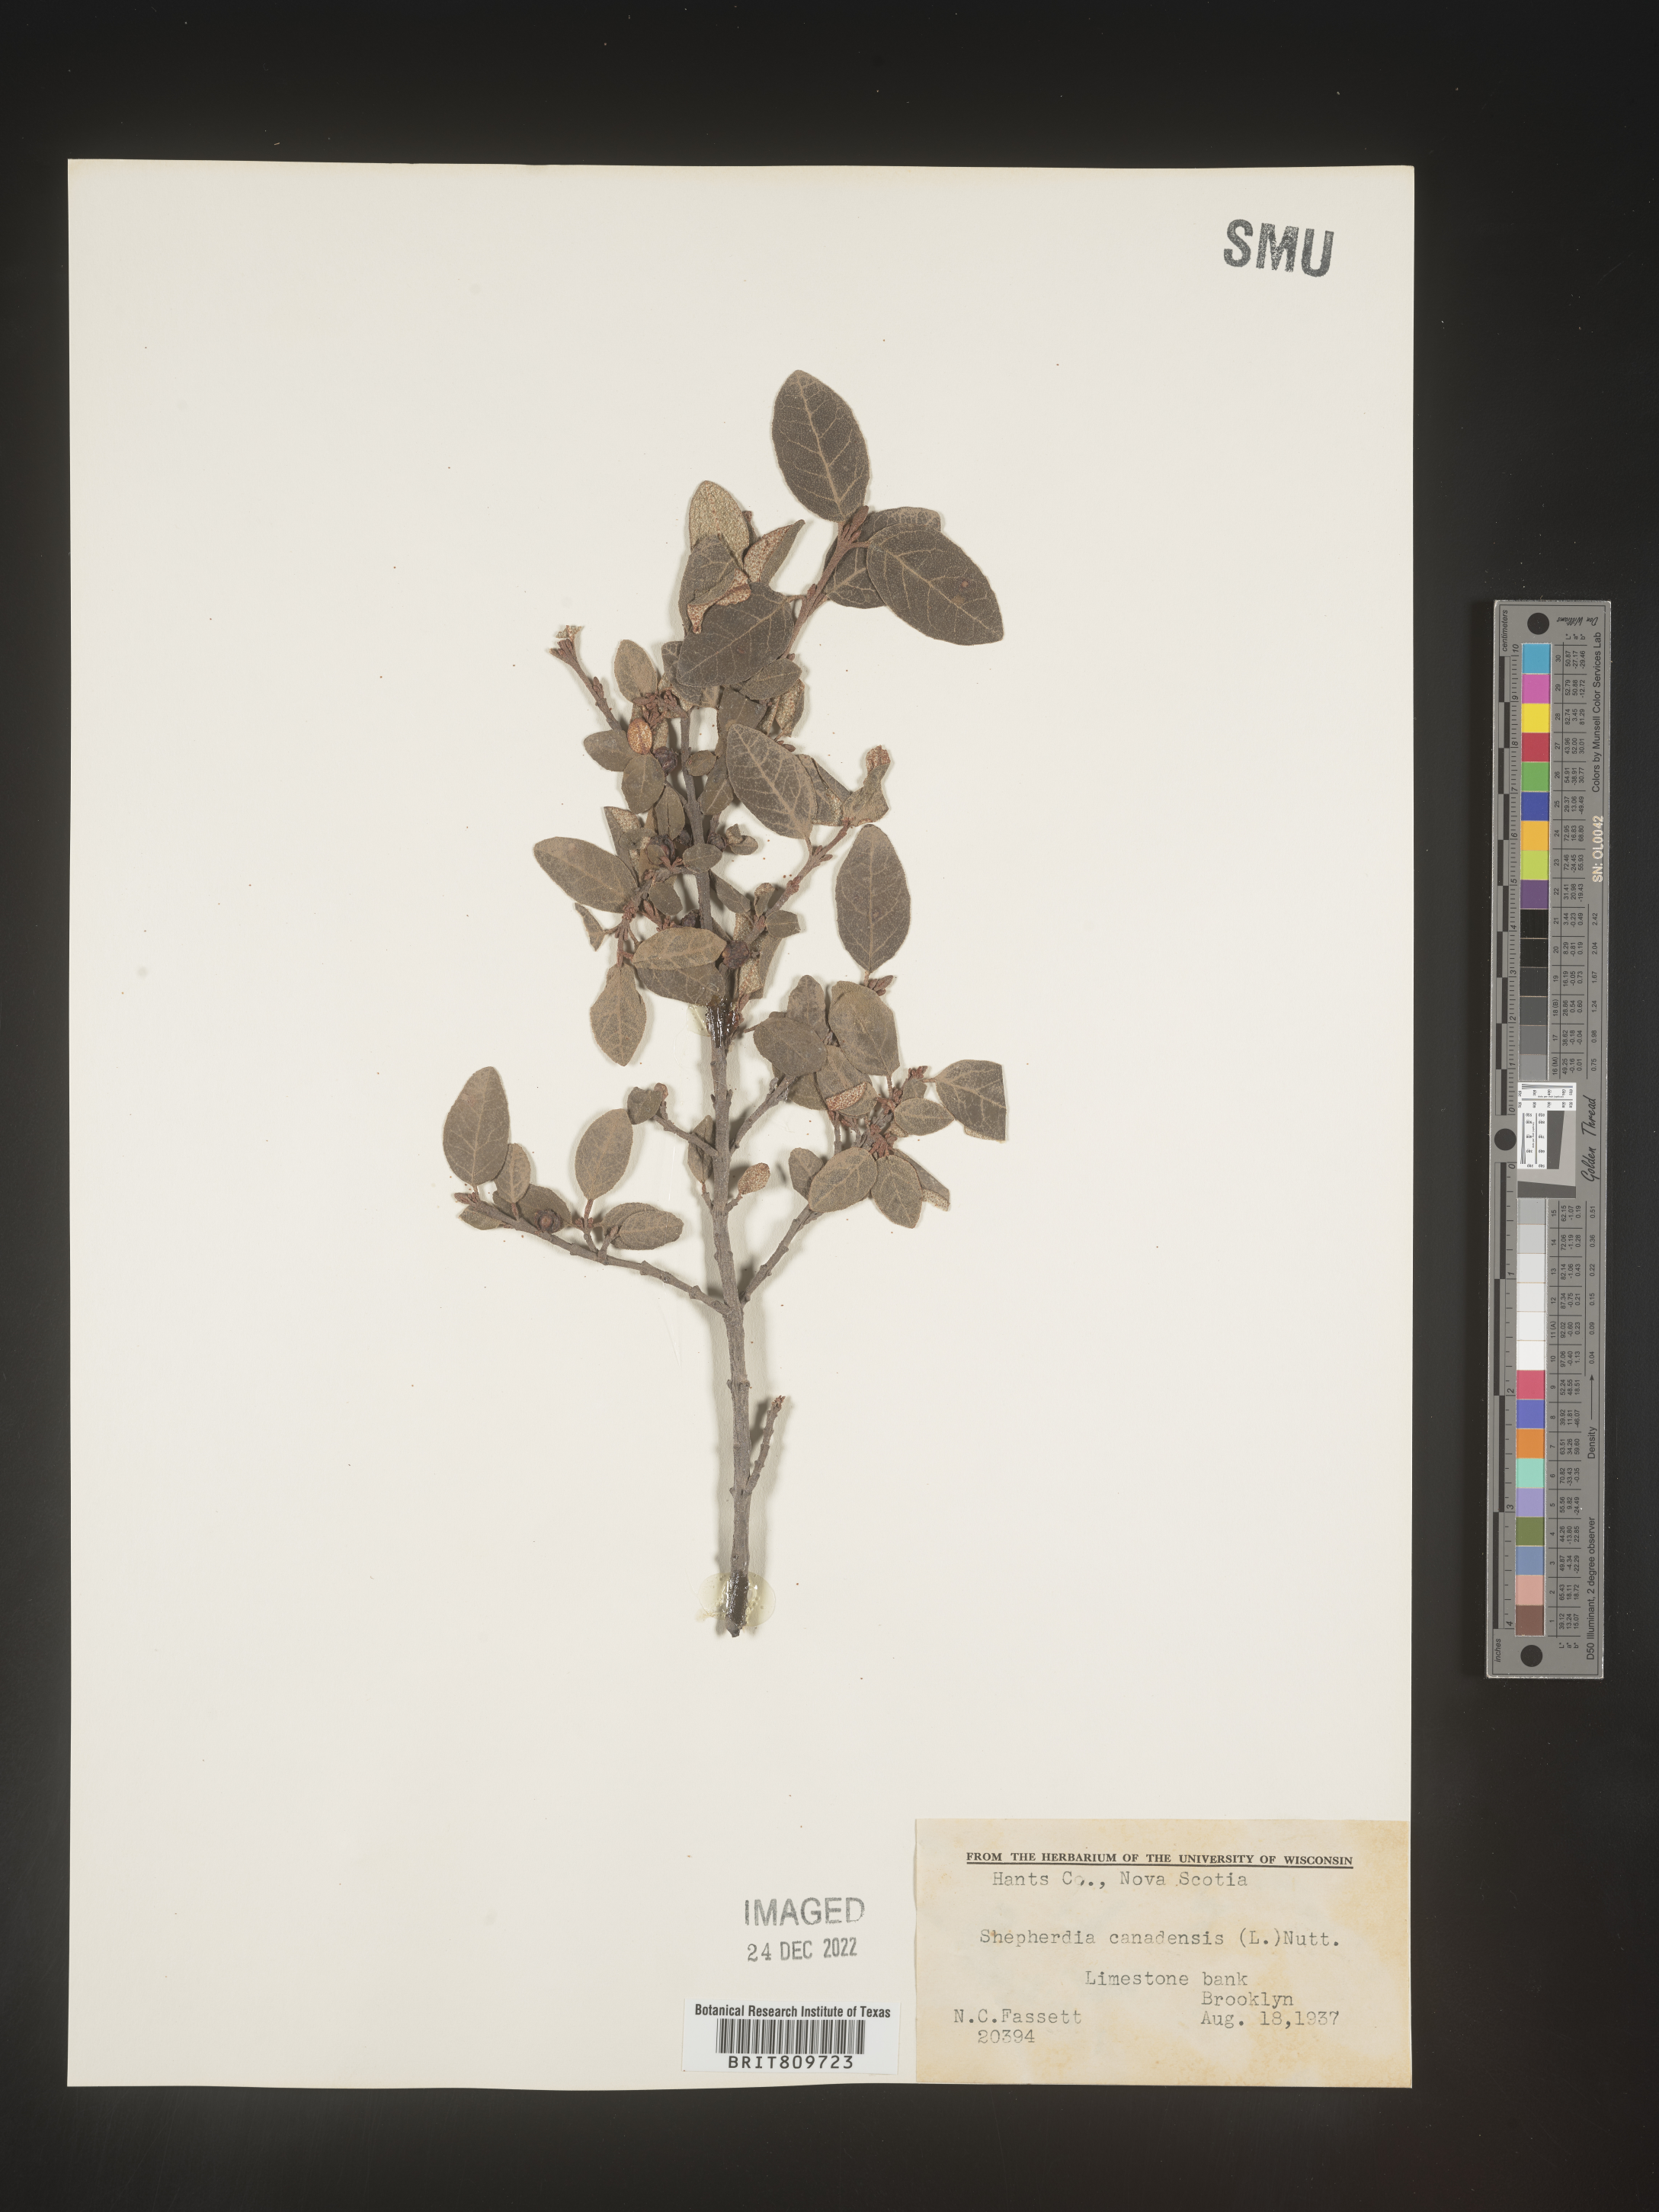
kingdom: Plantae
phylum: Tracheophyta
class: Magnoliopsida
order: Rosales
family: Elaeagnaceae
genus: Shepherdia
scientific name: Shepherdia canadensis
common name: Soapberry
